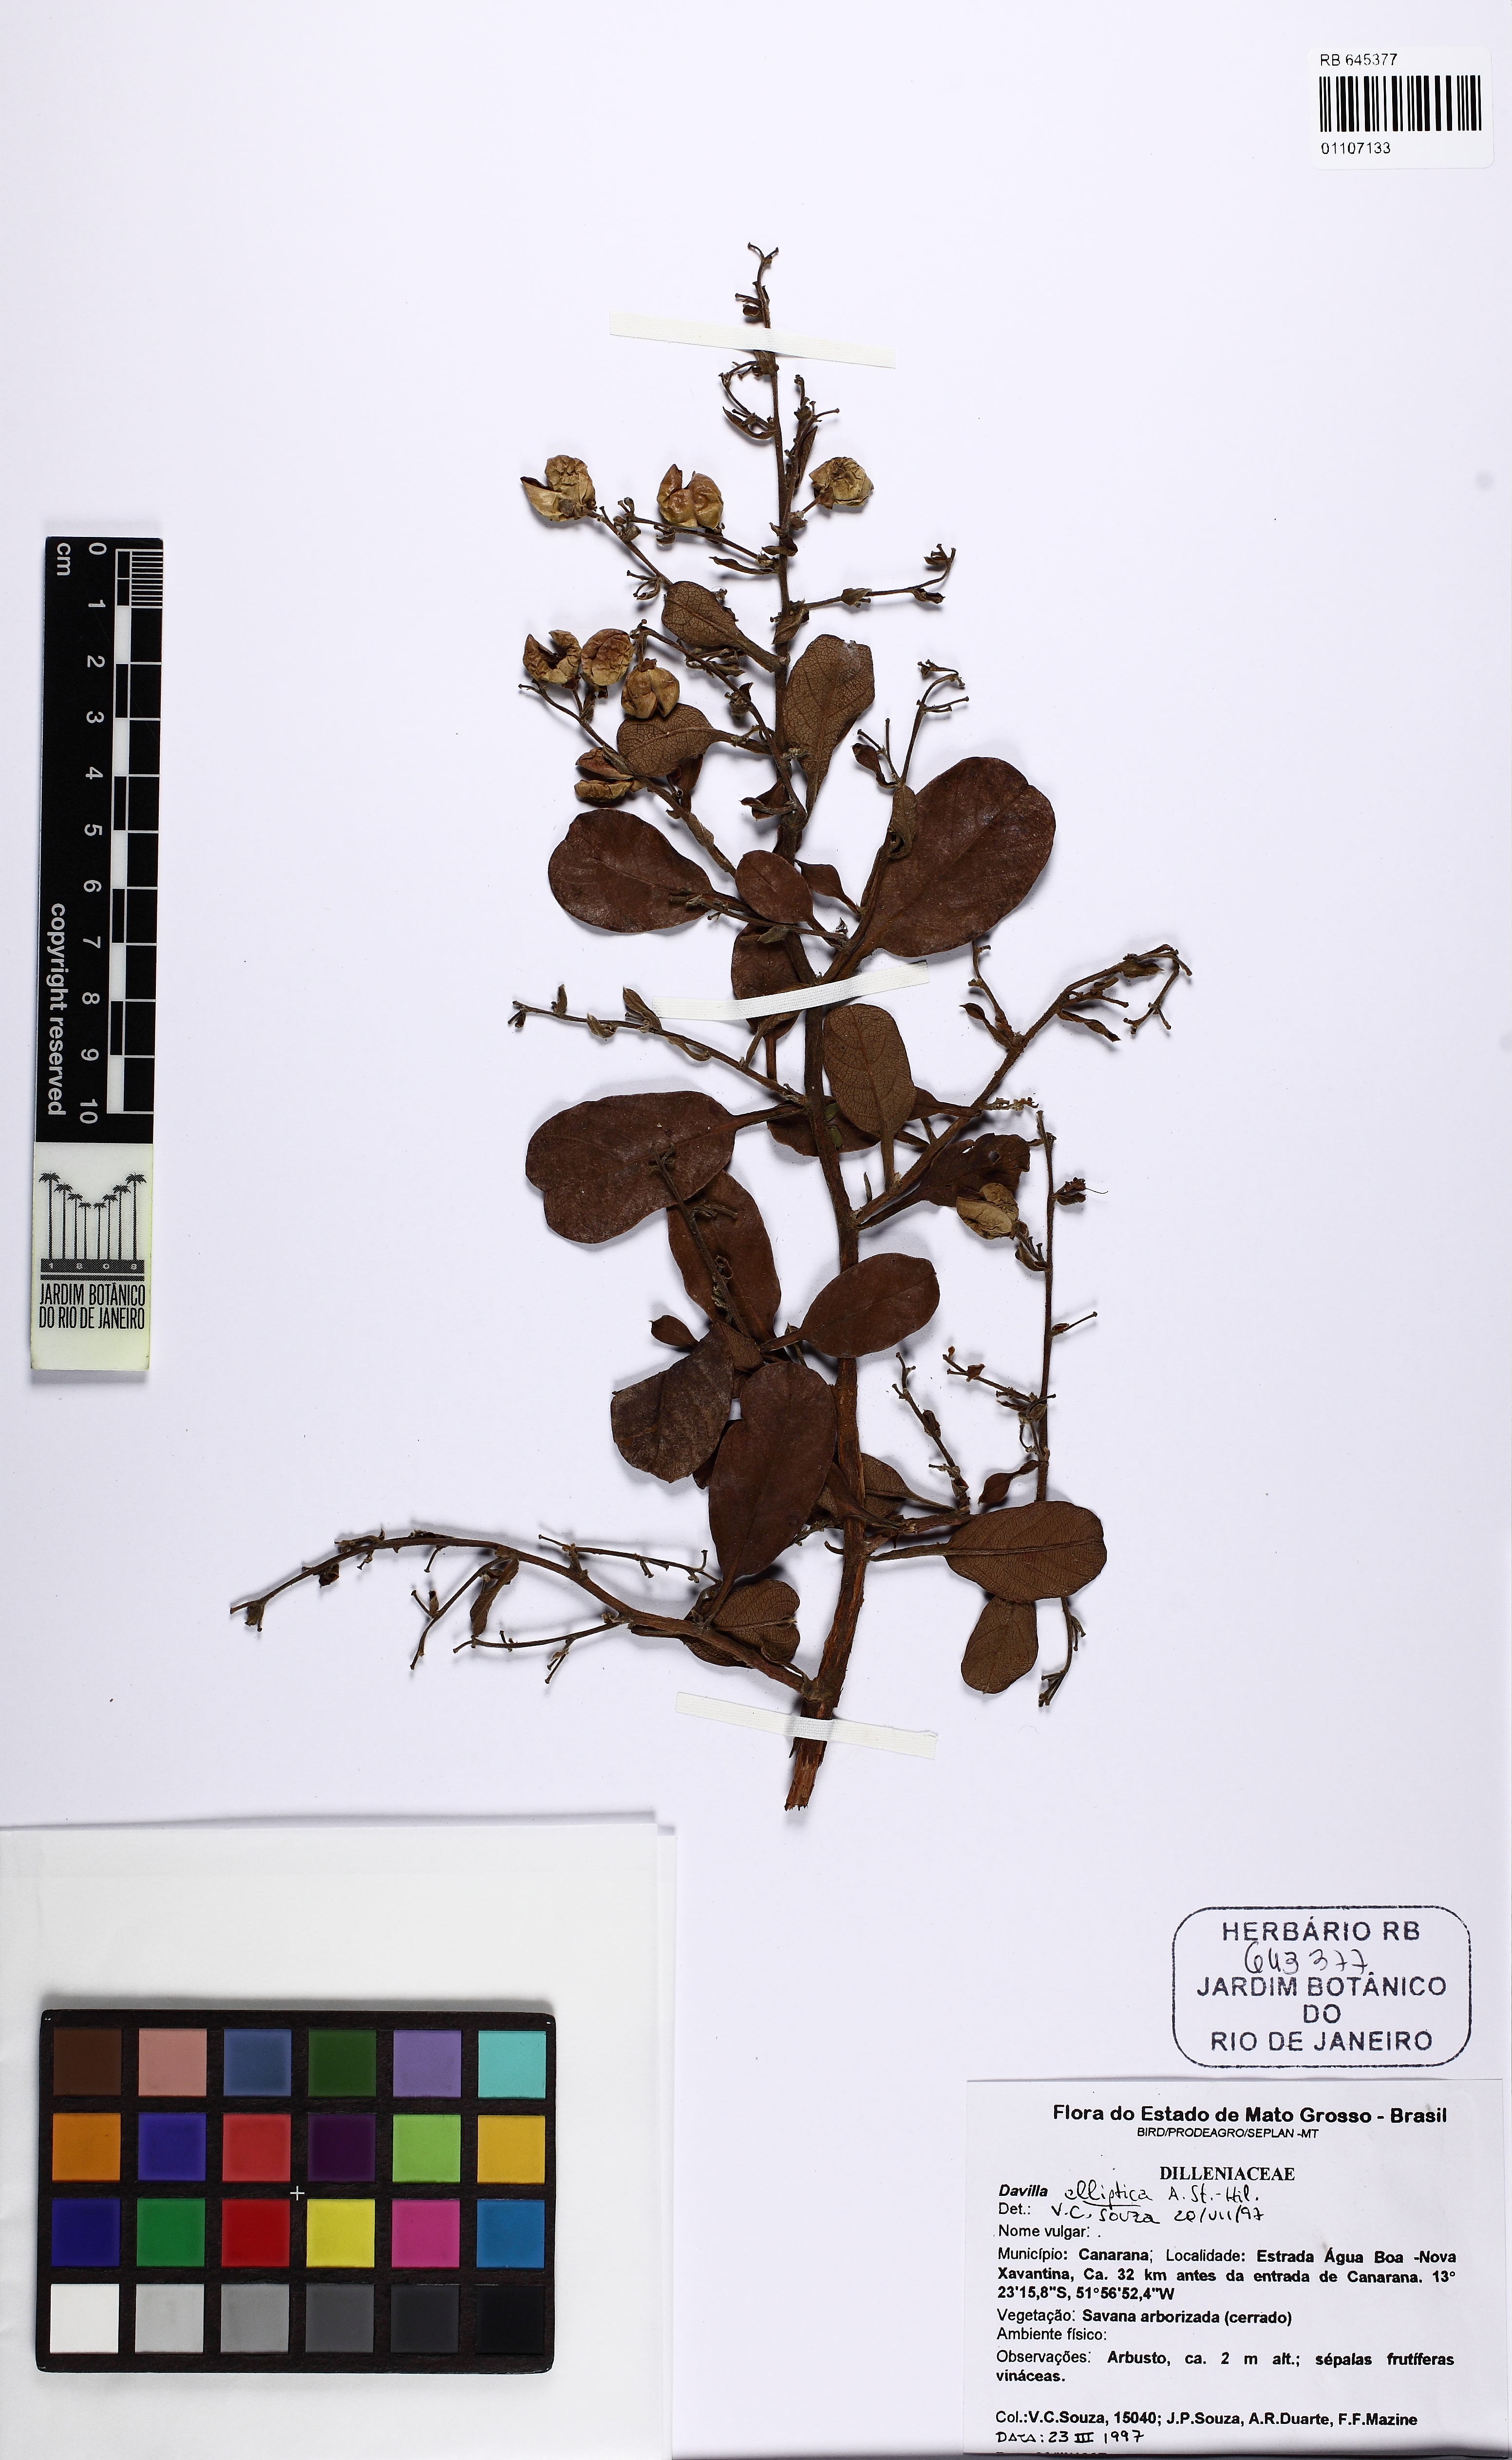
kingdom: Plantae
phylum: Tracheophyta
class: Magnoliopsida
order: Dilleniales
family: Dilleniaceae
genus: Davilla
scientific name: Davilla elliptica
